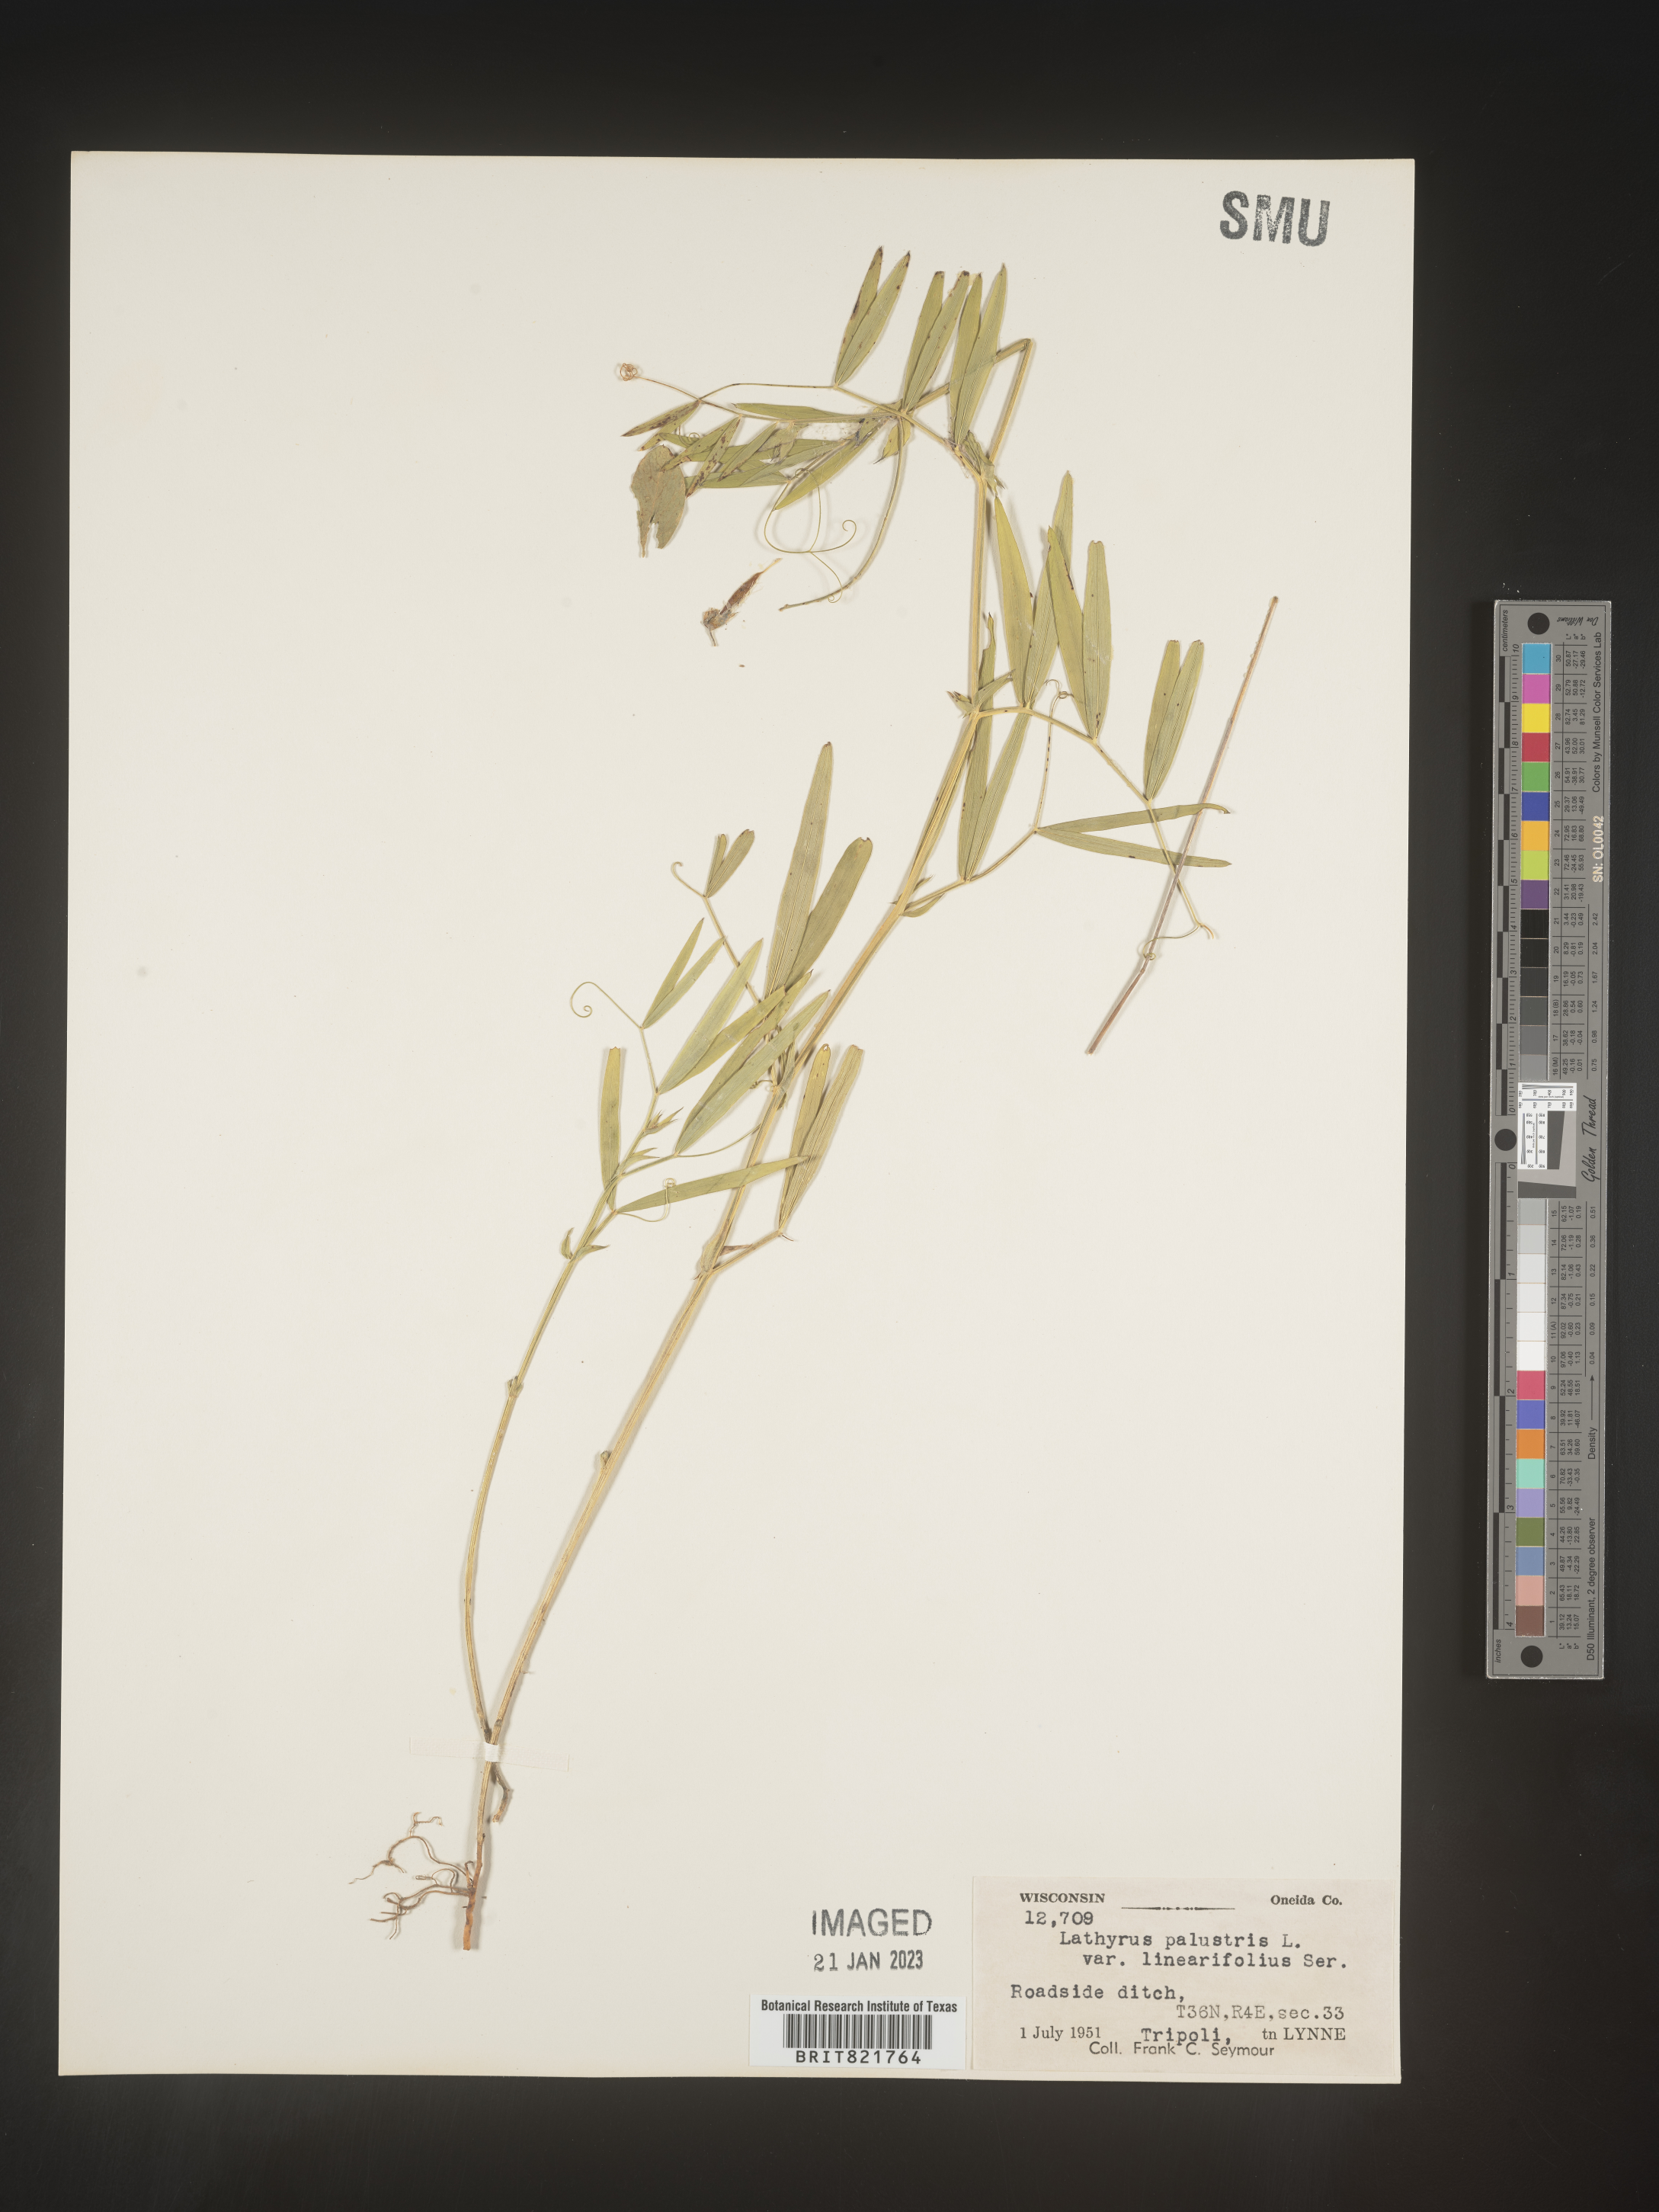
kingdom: Plantae
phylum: Tracheophyta
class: Magnoliopsida
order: Fabales
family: Fabaceae
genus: Lathyrus
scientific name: Lathyrus palustris
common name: Marsh pea
